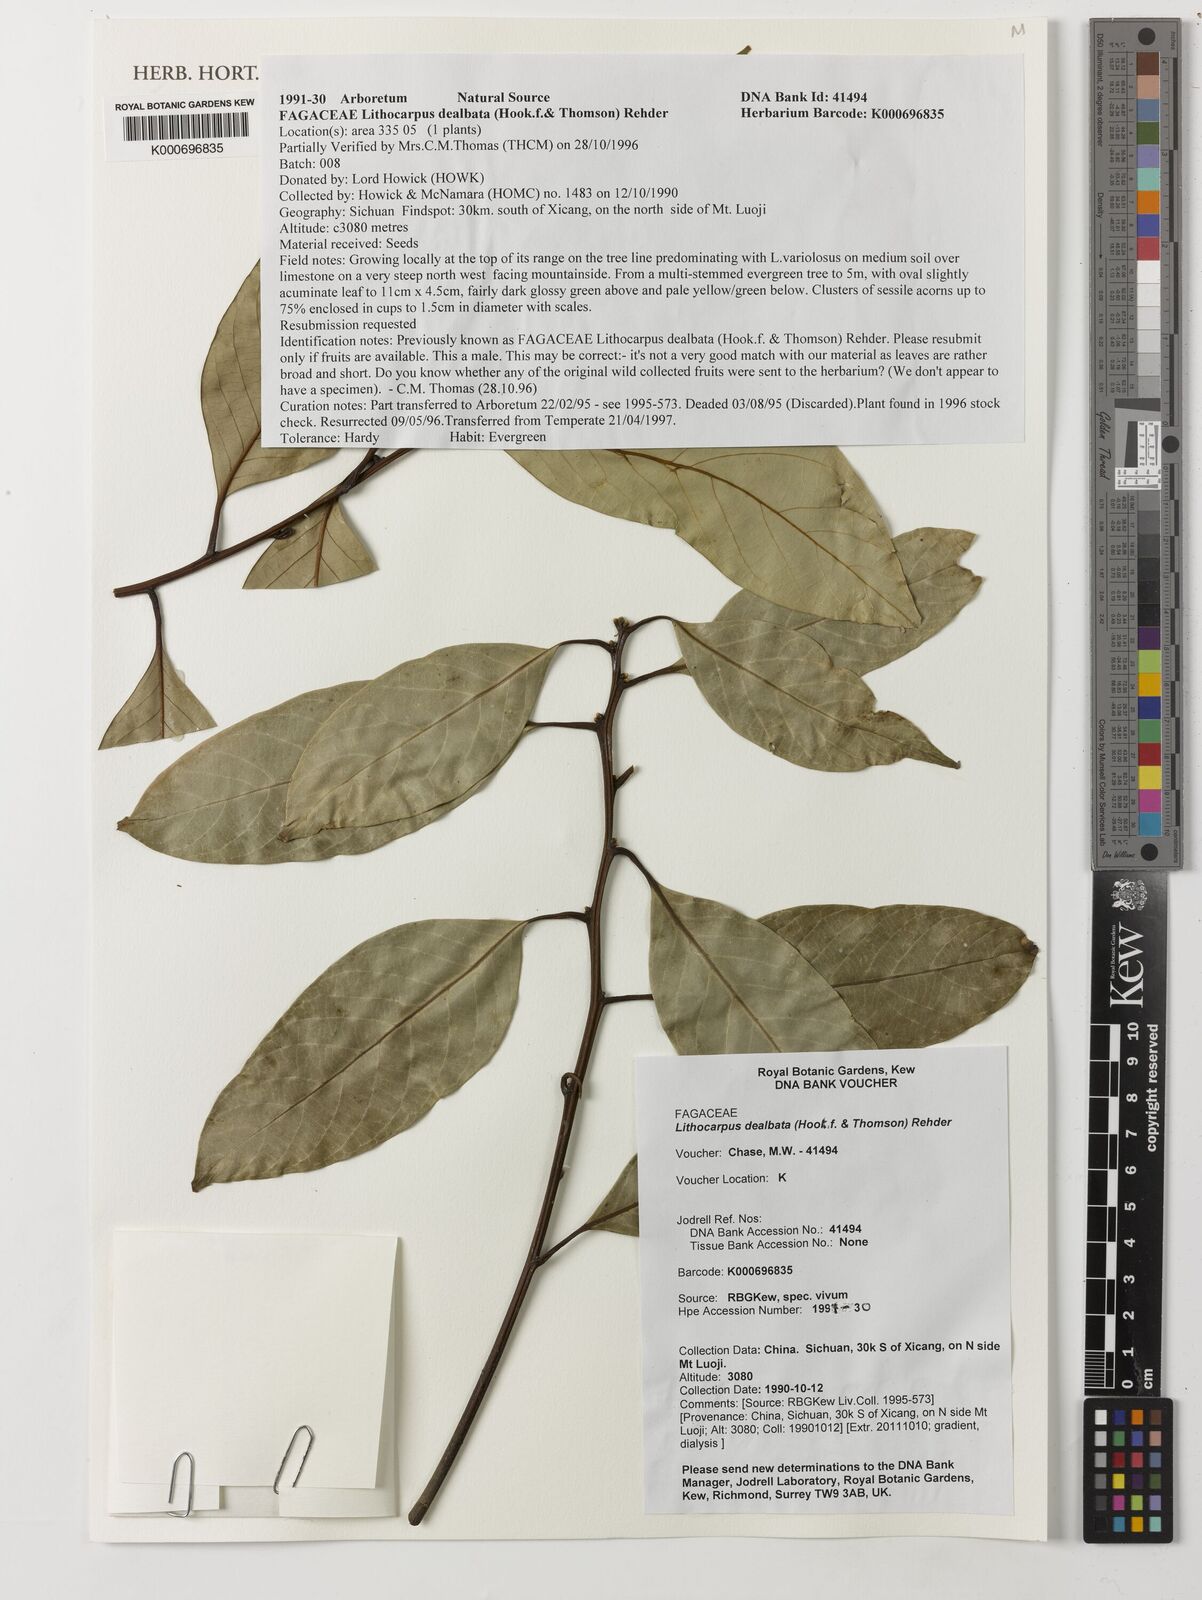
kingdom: Plantae
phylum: Tracheophyta
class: Magnoliopsida
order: Fagales
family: Fagaceae
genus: Lithocarpus
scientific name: Lithocarpus dealbatus
